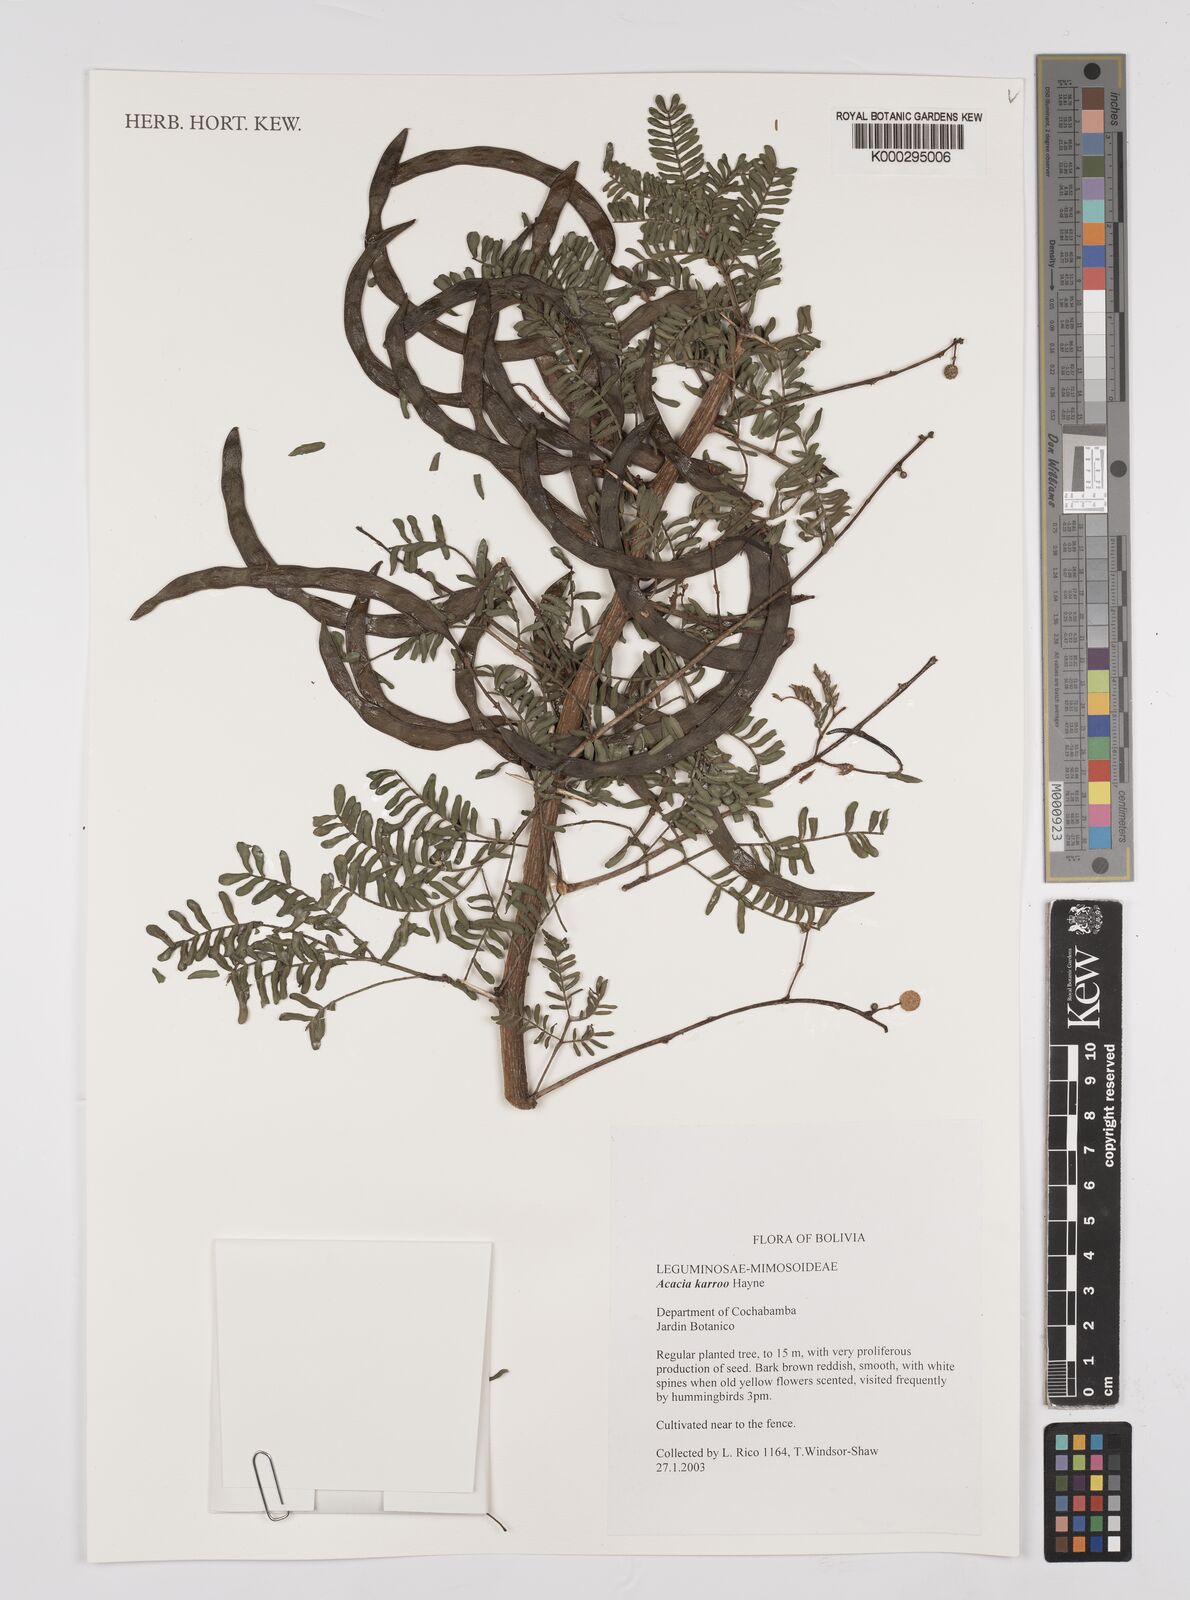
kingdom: Plantae
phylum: Tracheophyta
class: Magnoliopsida
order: Fabales
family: Fabaceae
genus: Vachellia
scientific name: Vachellia karroo
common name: Sweet thorn
